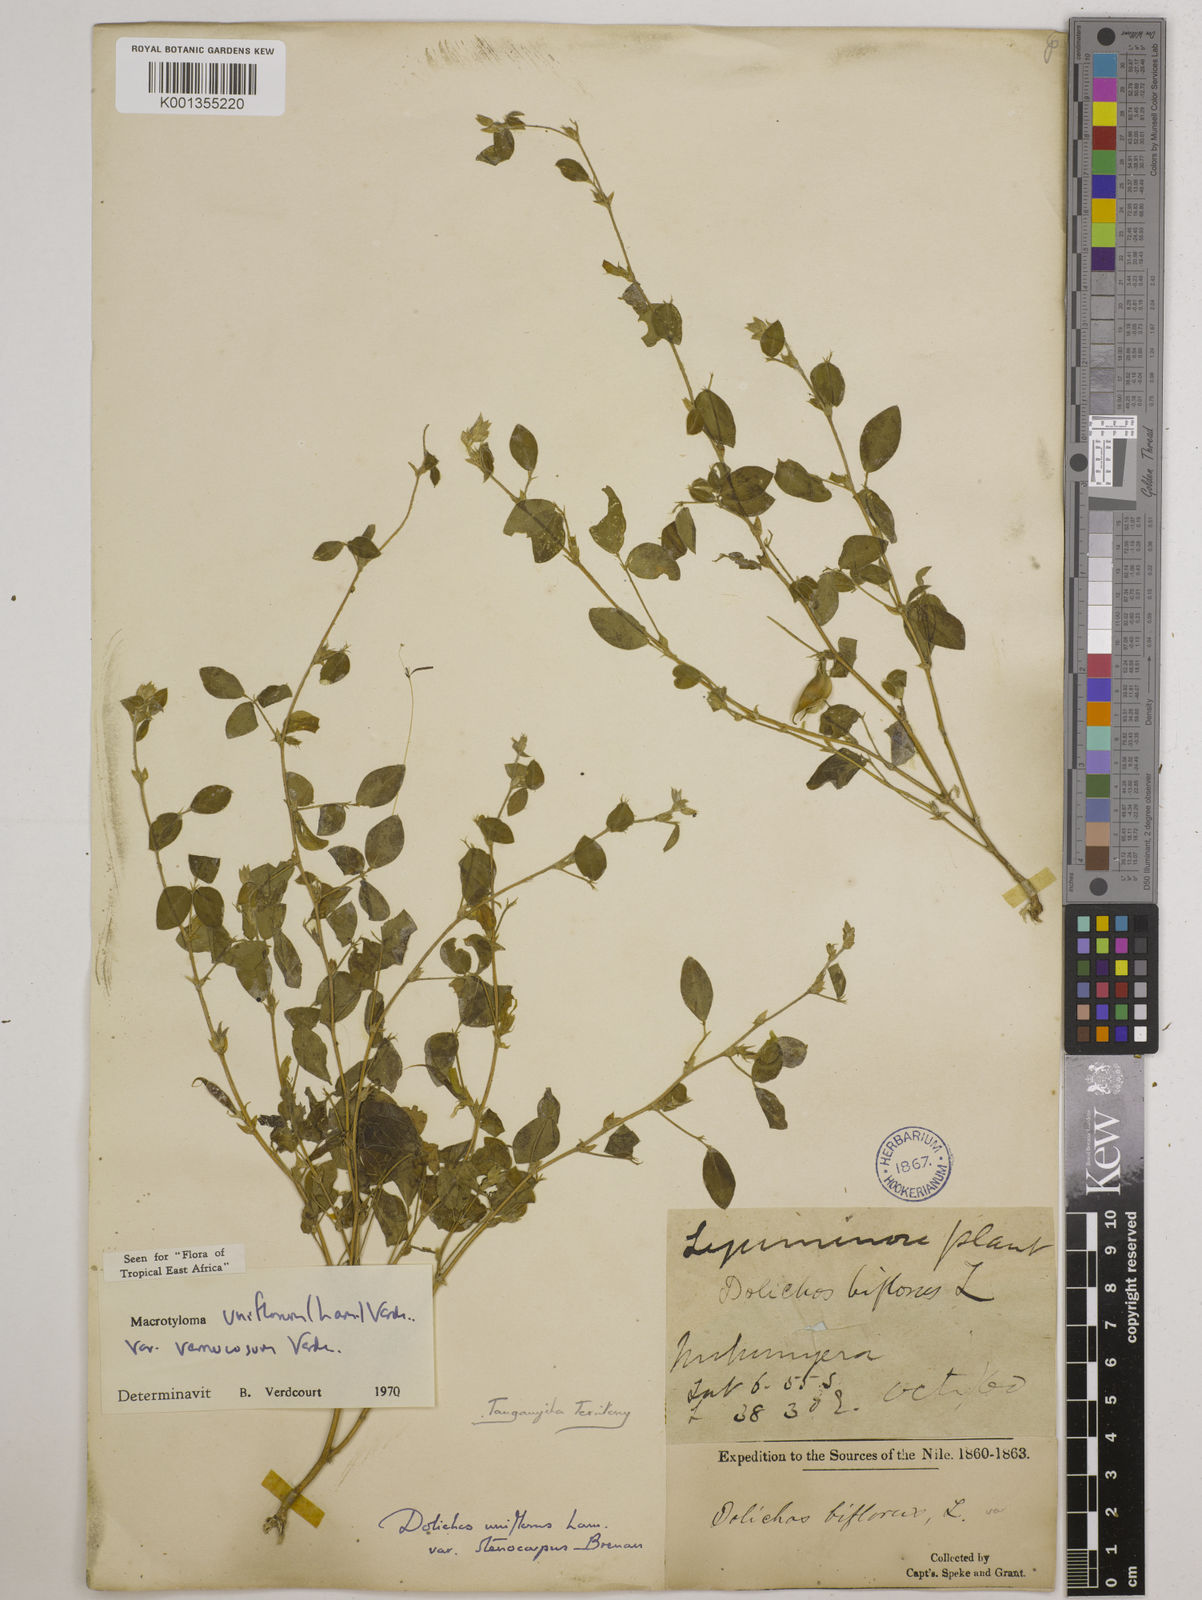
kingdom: Plantae
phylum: Tracheophyta
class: Magnoliopsida
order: Fabales
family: Fabaceae
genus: Macrotyloma
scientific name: Macrotyloma
